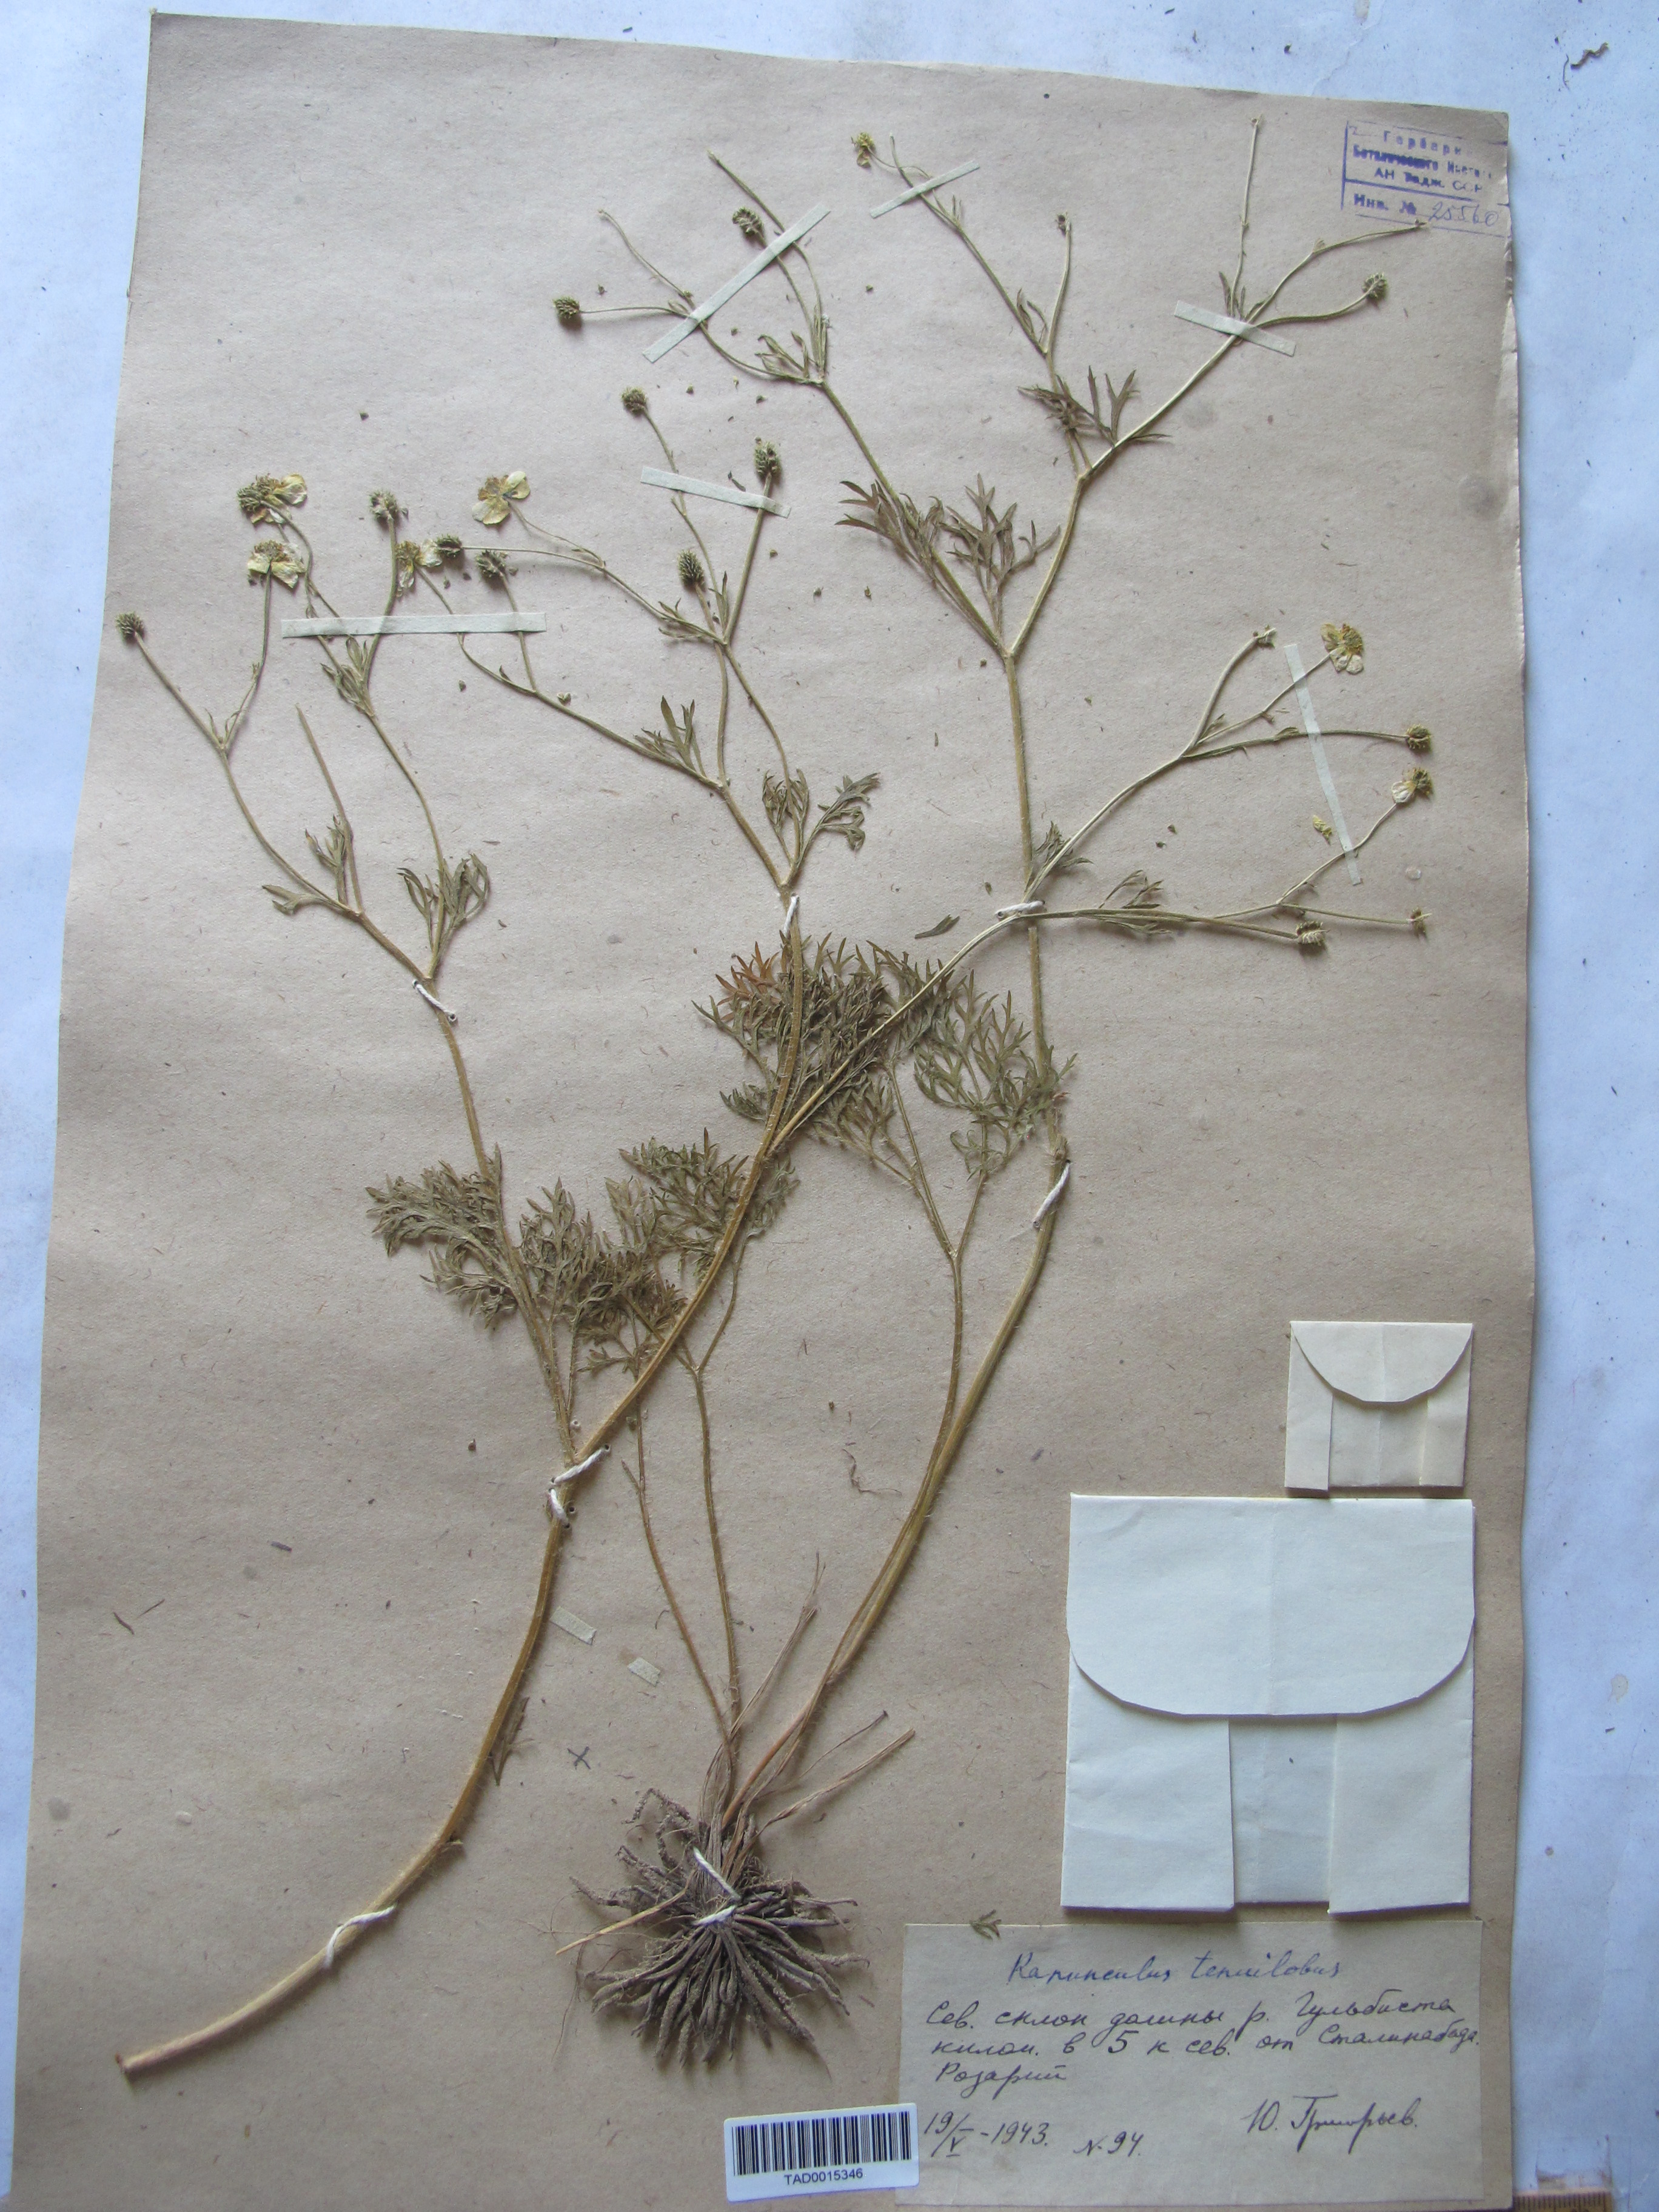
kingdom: Plantae
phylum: Tracheophyta
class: Magnoliopsida
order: Ranunculales
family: Ranunculaceae
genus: Ranunculus
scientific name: Ranunculus tenuilobus
